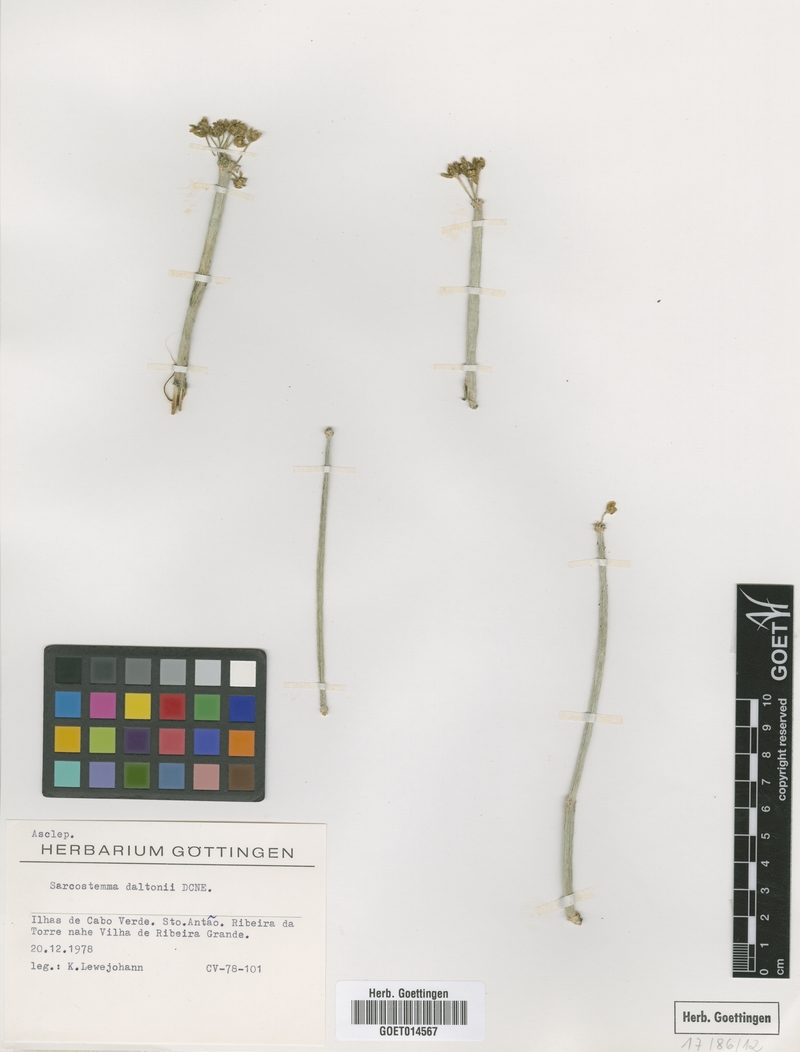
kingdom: Plantae
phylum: Tracheophyta
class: Magnoliopsida
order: Gentianales
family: Apocynaceae
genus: Cynanchum
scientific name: Cynanchum daltonii
